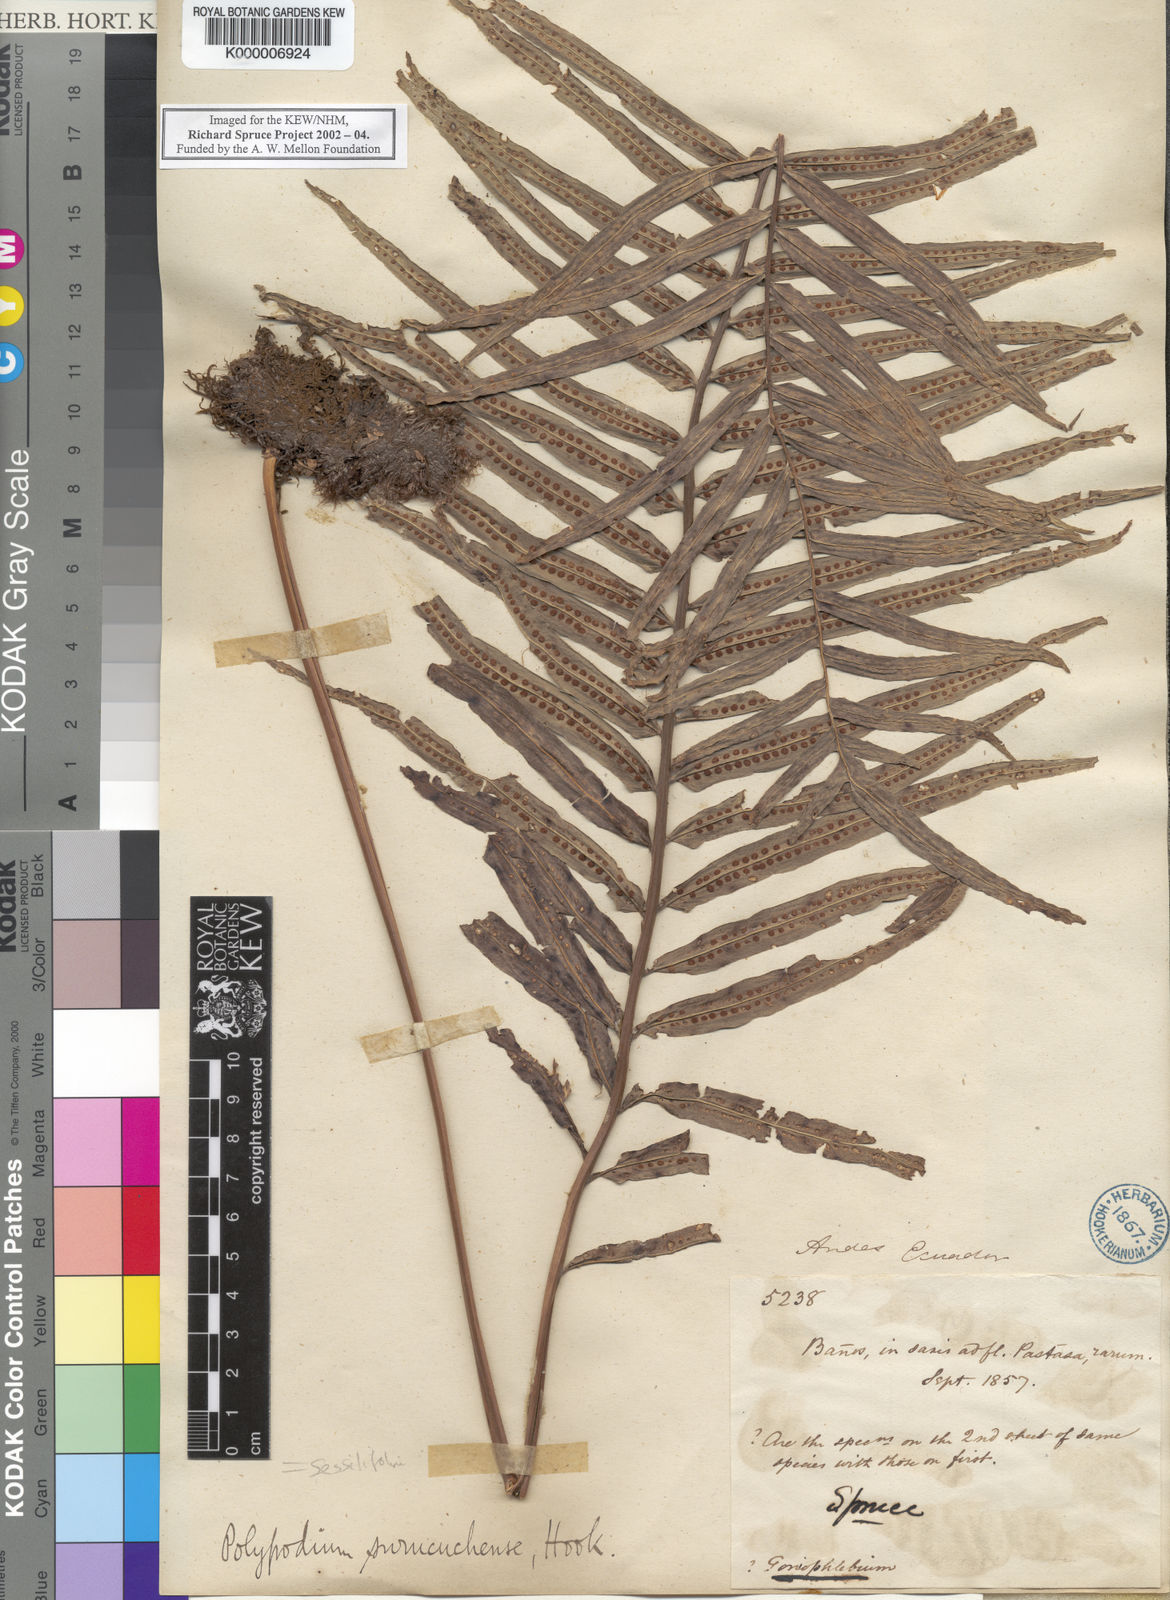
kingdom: Plantae
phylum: Tracheophyta
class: Polypodiopsida
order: Polypodiales
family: Polypodiaceae
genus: Serpocaulon
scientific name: Serpocaulon sessilifolium
